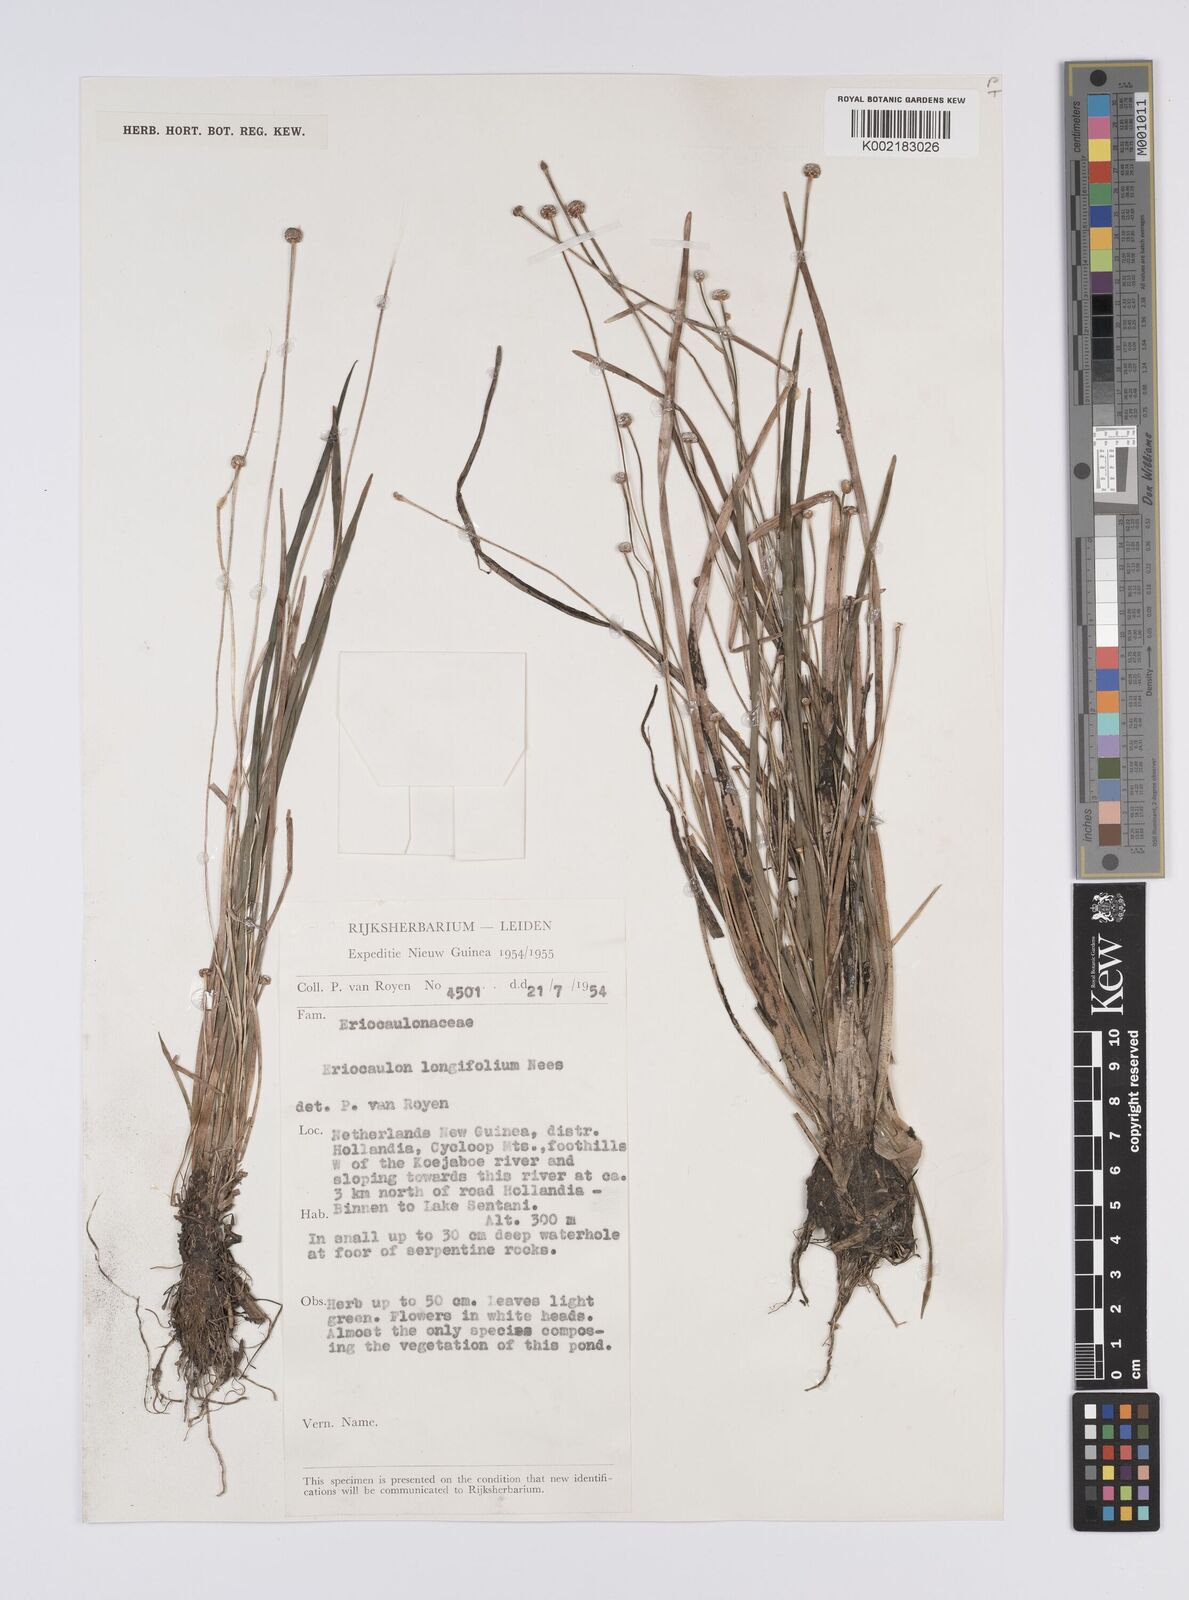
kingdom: Plantae
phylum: Tracheophyta
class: Liliopsida
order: Poales
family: Eriocaulaceae
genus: Eriocaulon
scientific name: Eriocaulon willdenovianum
